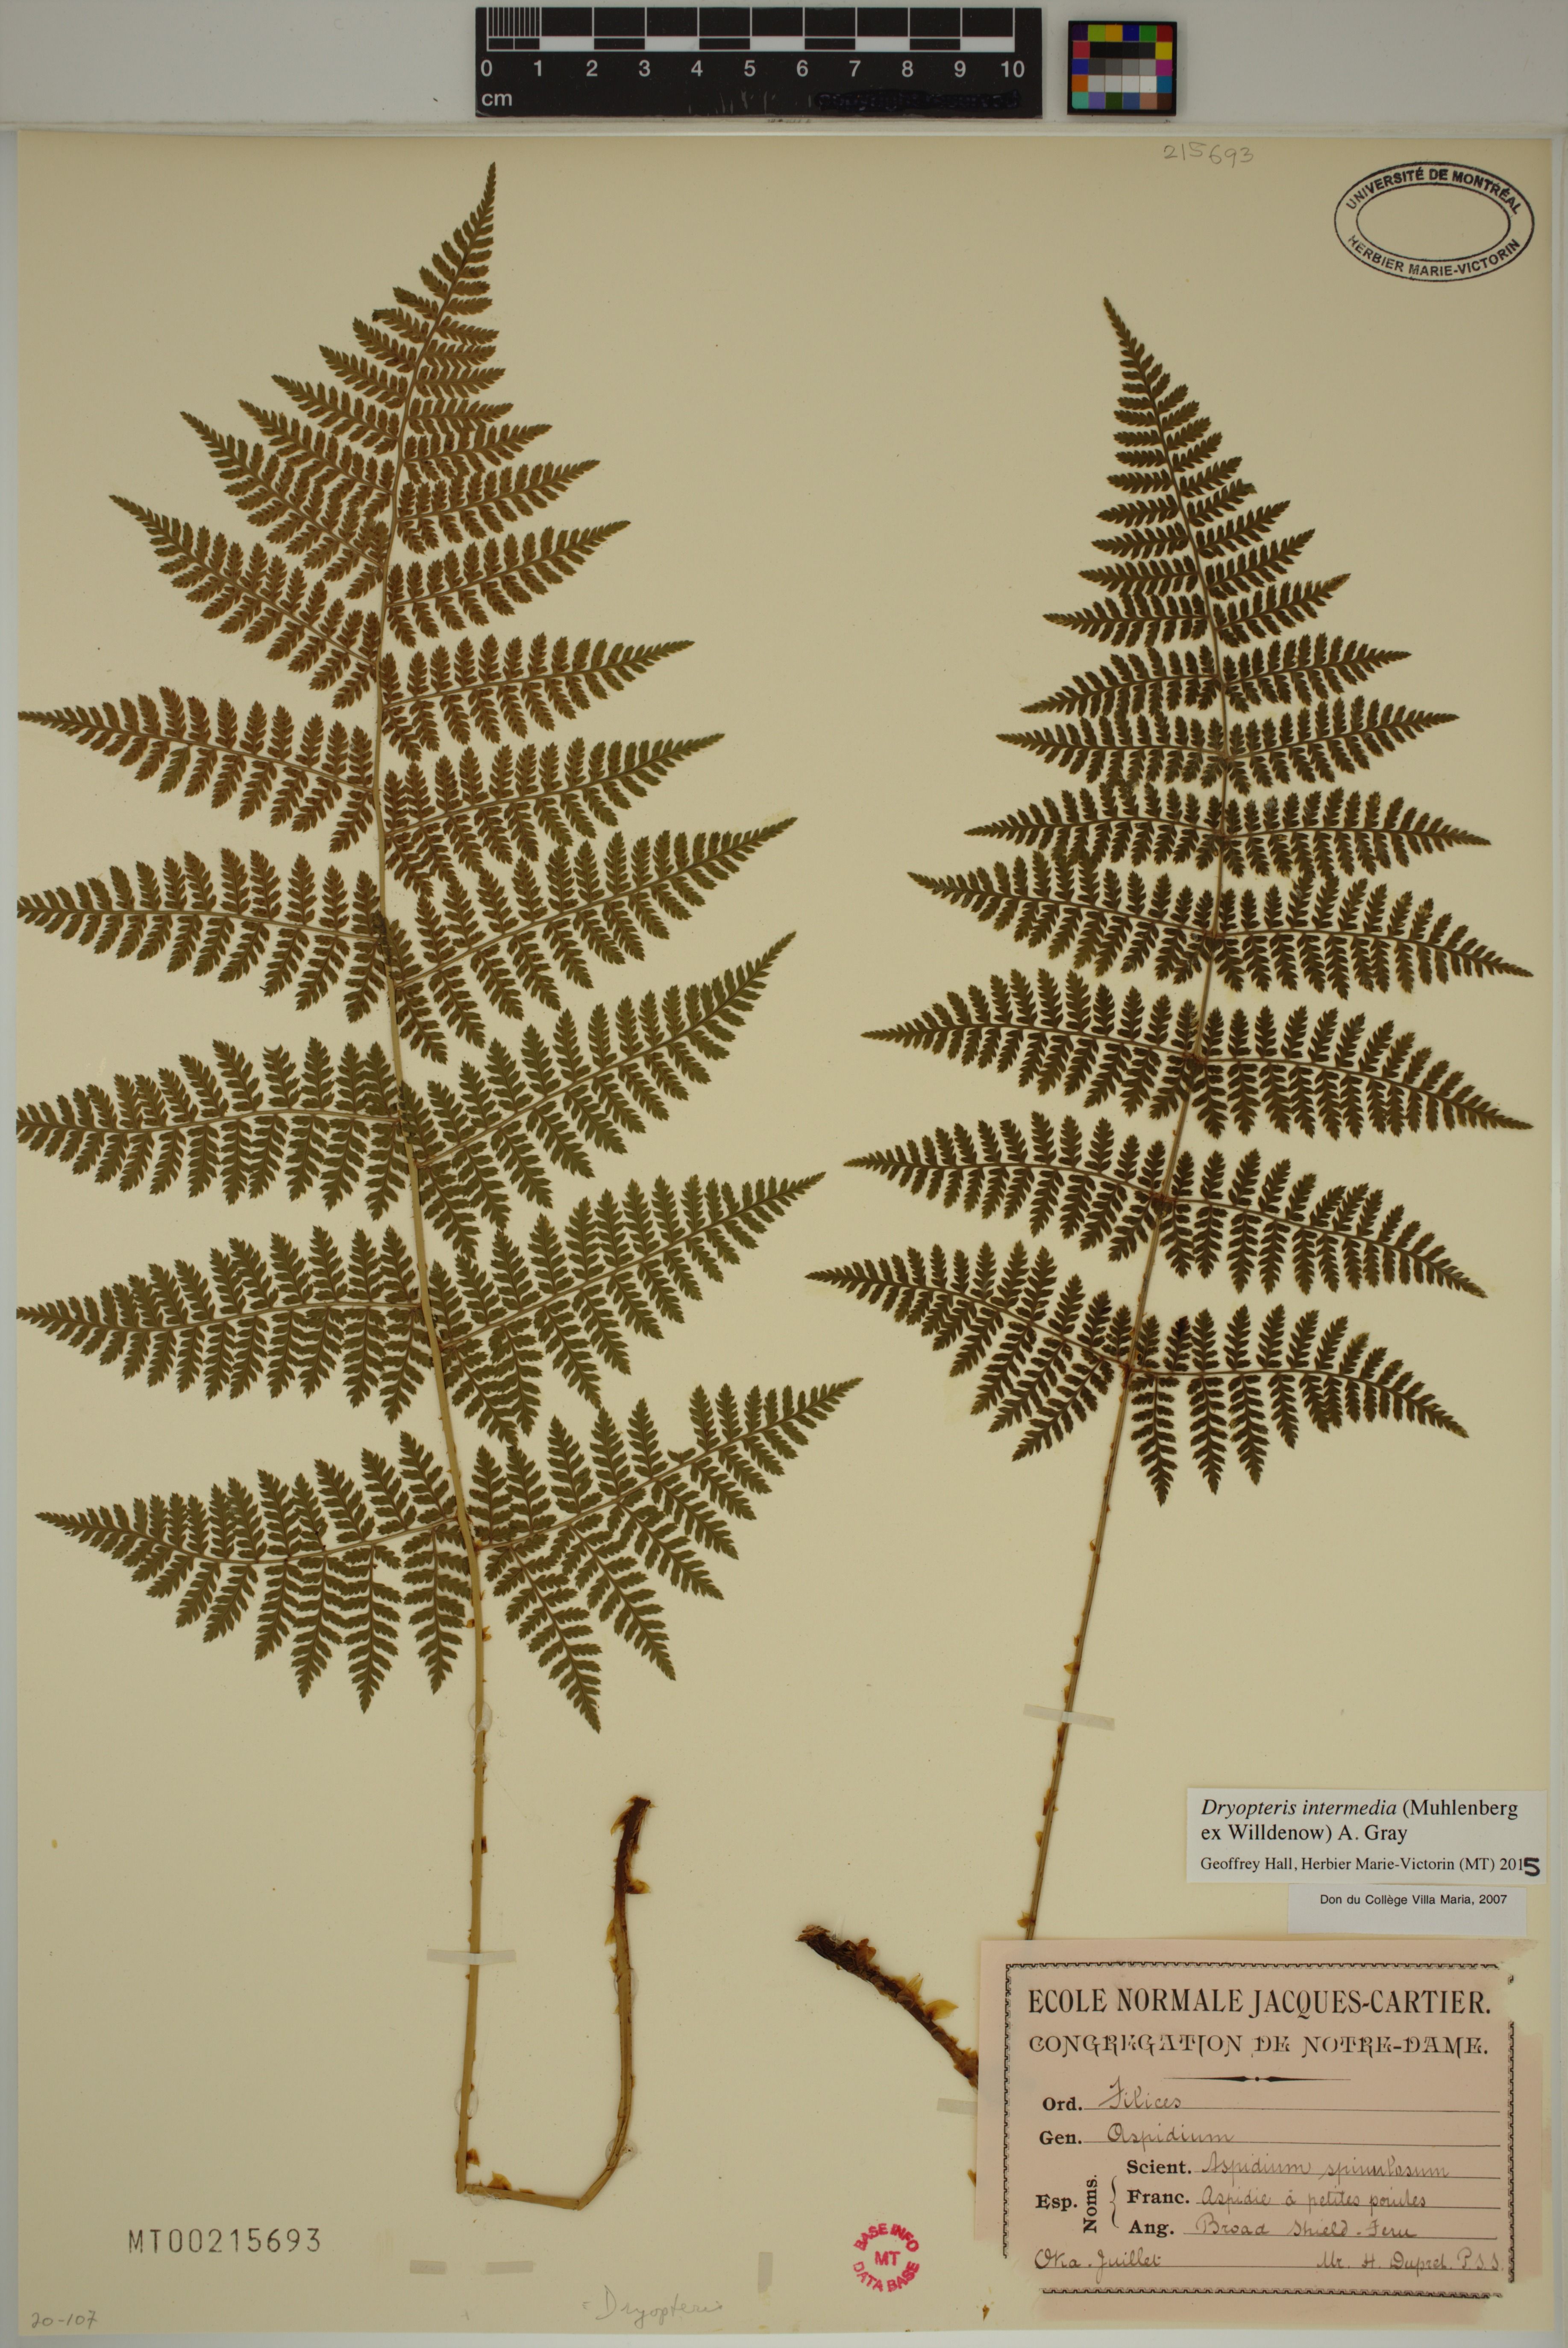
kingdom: Plantae
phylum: Tracheophyta
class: Polypodiopsida
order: Polypodiales
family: Dryopteridaceae
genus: Dryopteris
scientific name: Dryopteris intermedia
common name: Evergreen wood fern
